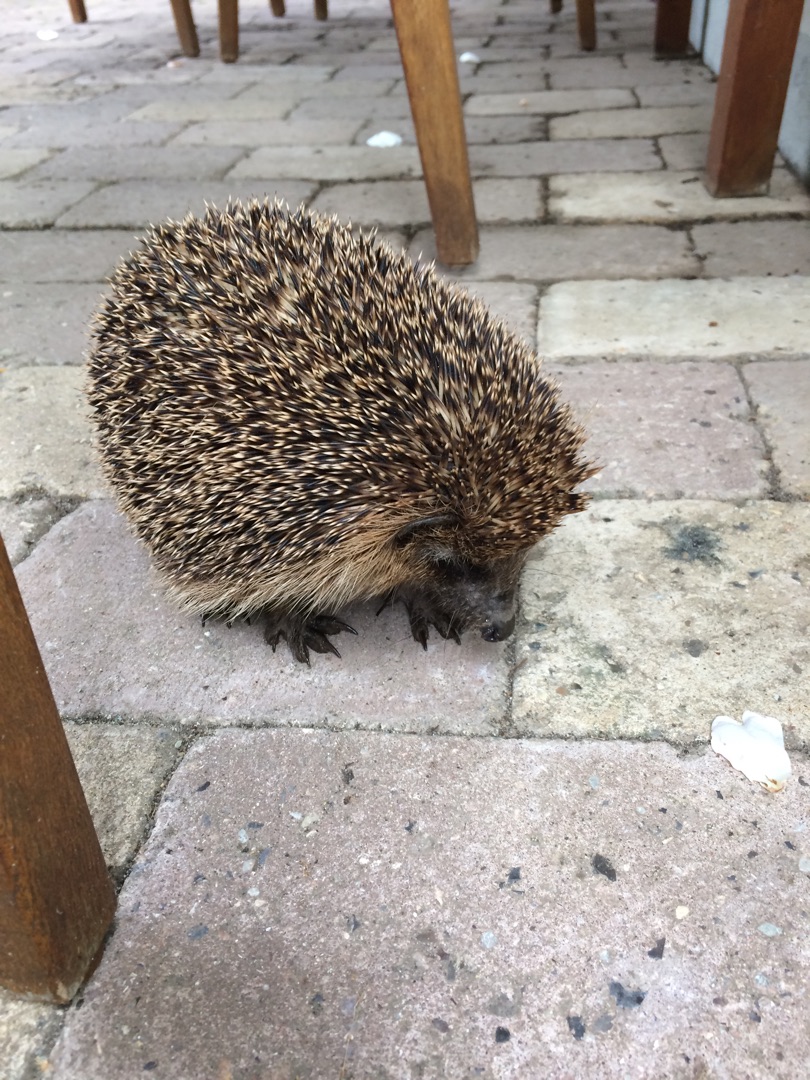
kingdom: Animalia
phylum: Chordata
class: Mammalia
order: Erinaceomorpha
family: Erinaceidae
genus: Erinaceus
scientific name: Erinaceus europaeus
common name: Pindsvin
